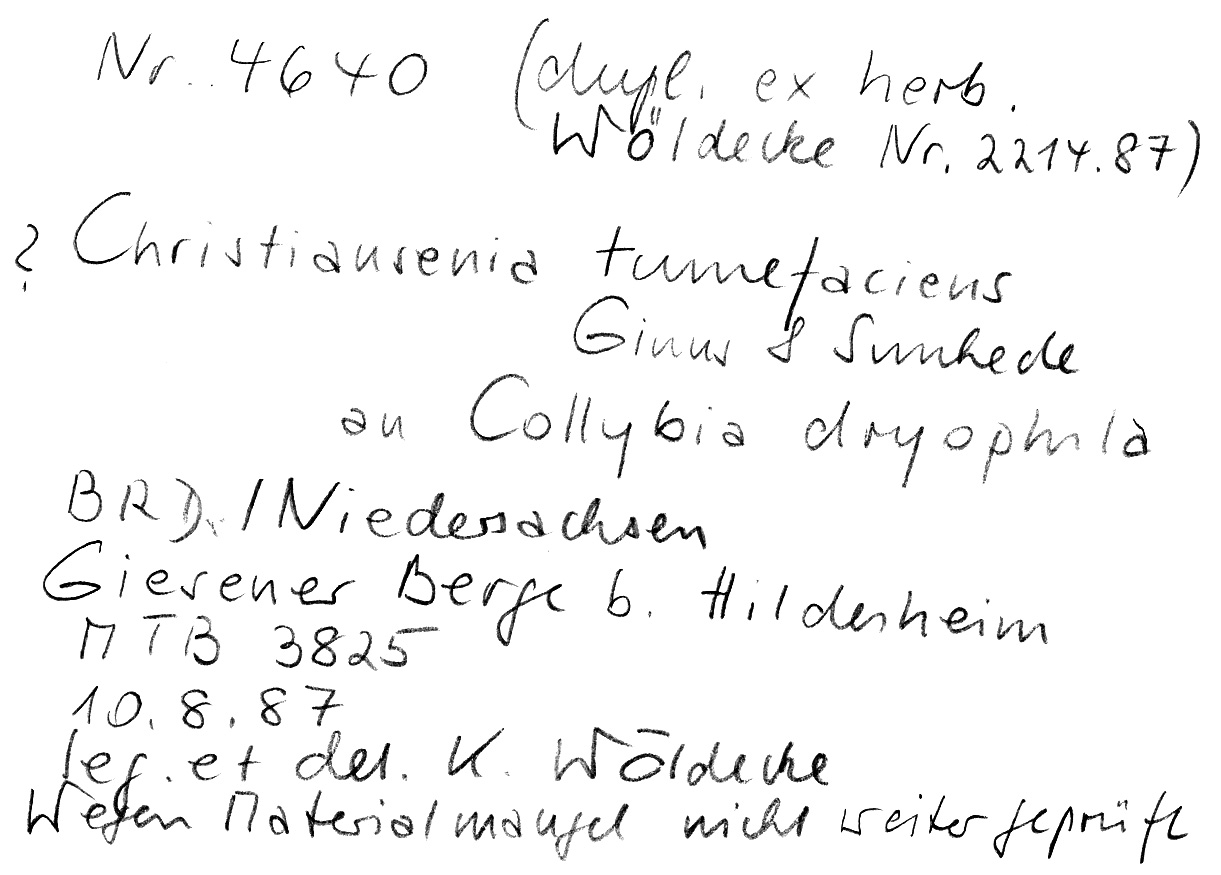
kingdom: Fungi
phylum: Basidiomycota
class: Tremellomycetes
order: Filobasidiales
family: Filobasidiaceae
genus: Syzygospora
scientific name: Syzygospora tumefaciens
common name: Toughshank jellygall
